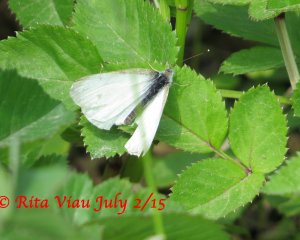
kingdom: Animalia
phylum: Arthropoda
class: Insecta
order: Lepidoptera
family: Pieridae
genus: Pieris
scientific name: Pieris rapae
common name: Cabbage White
